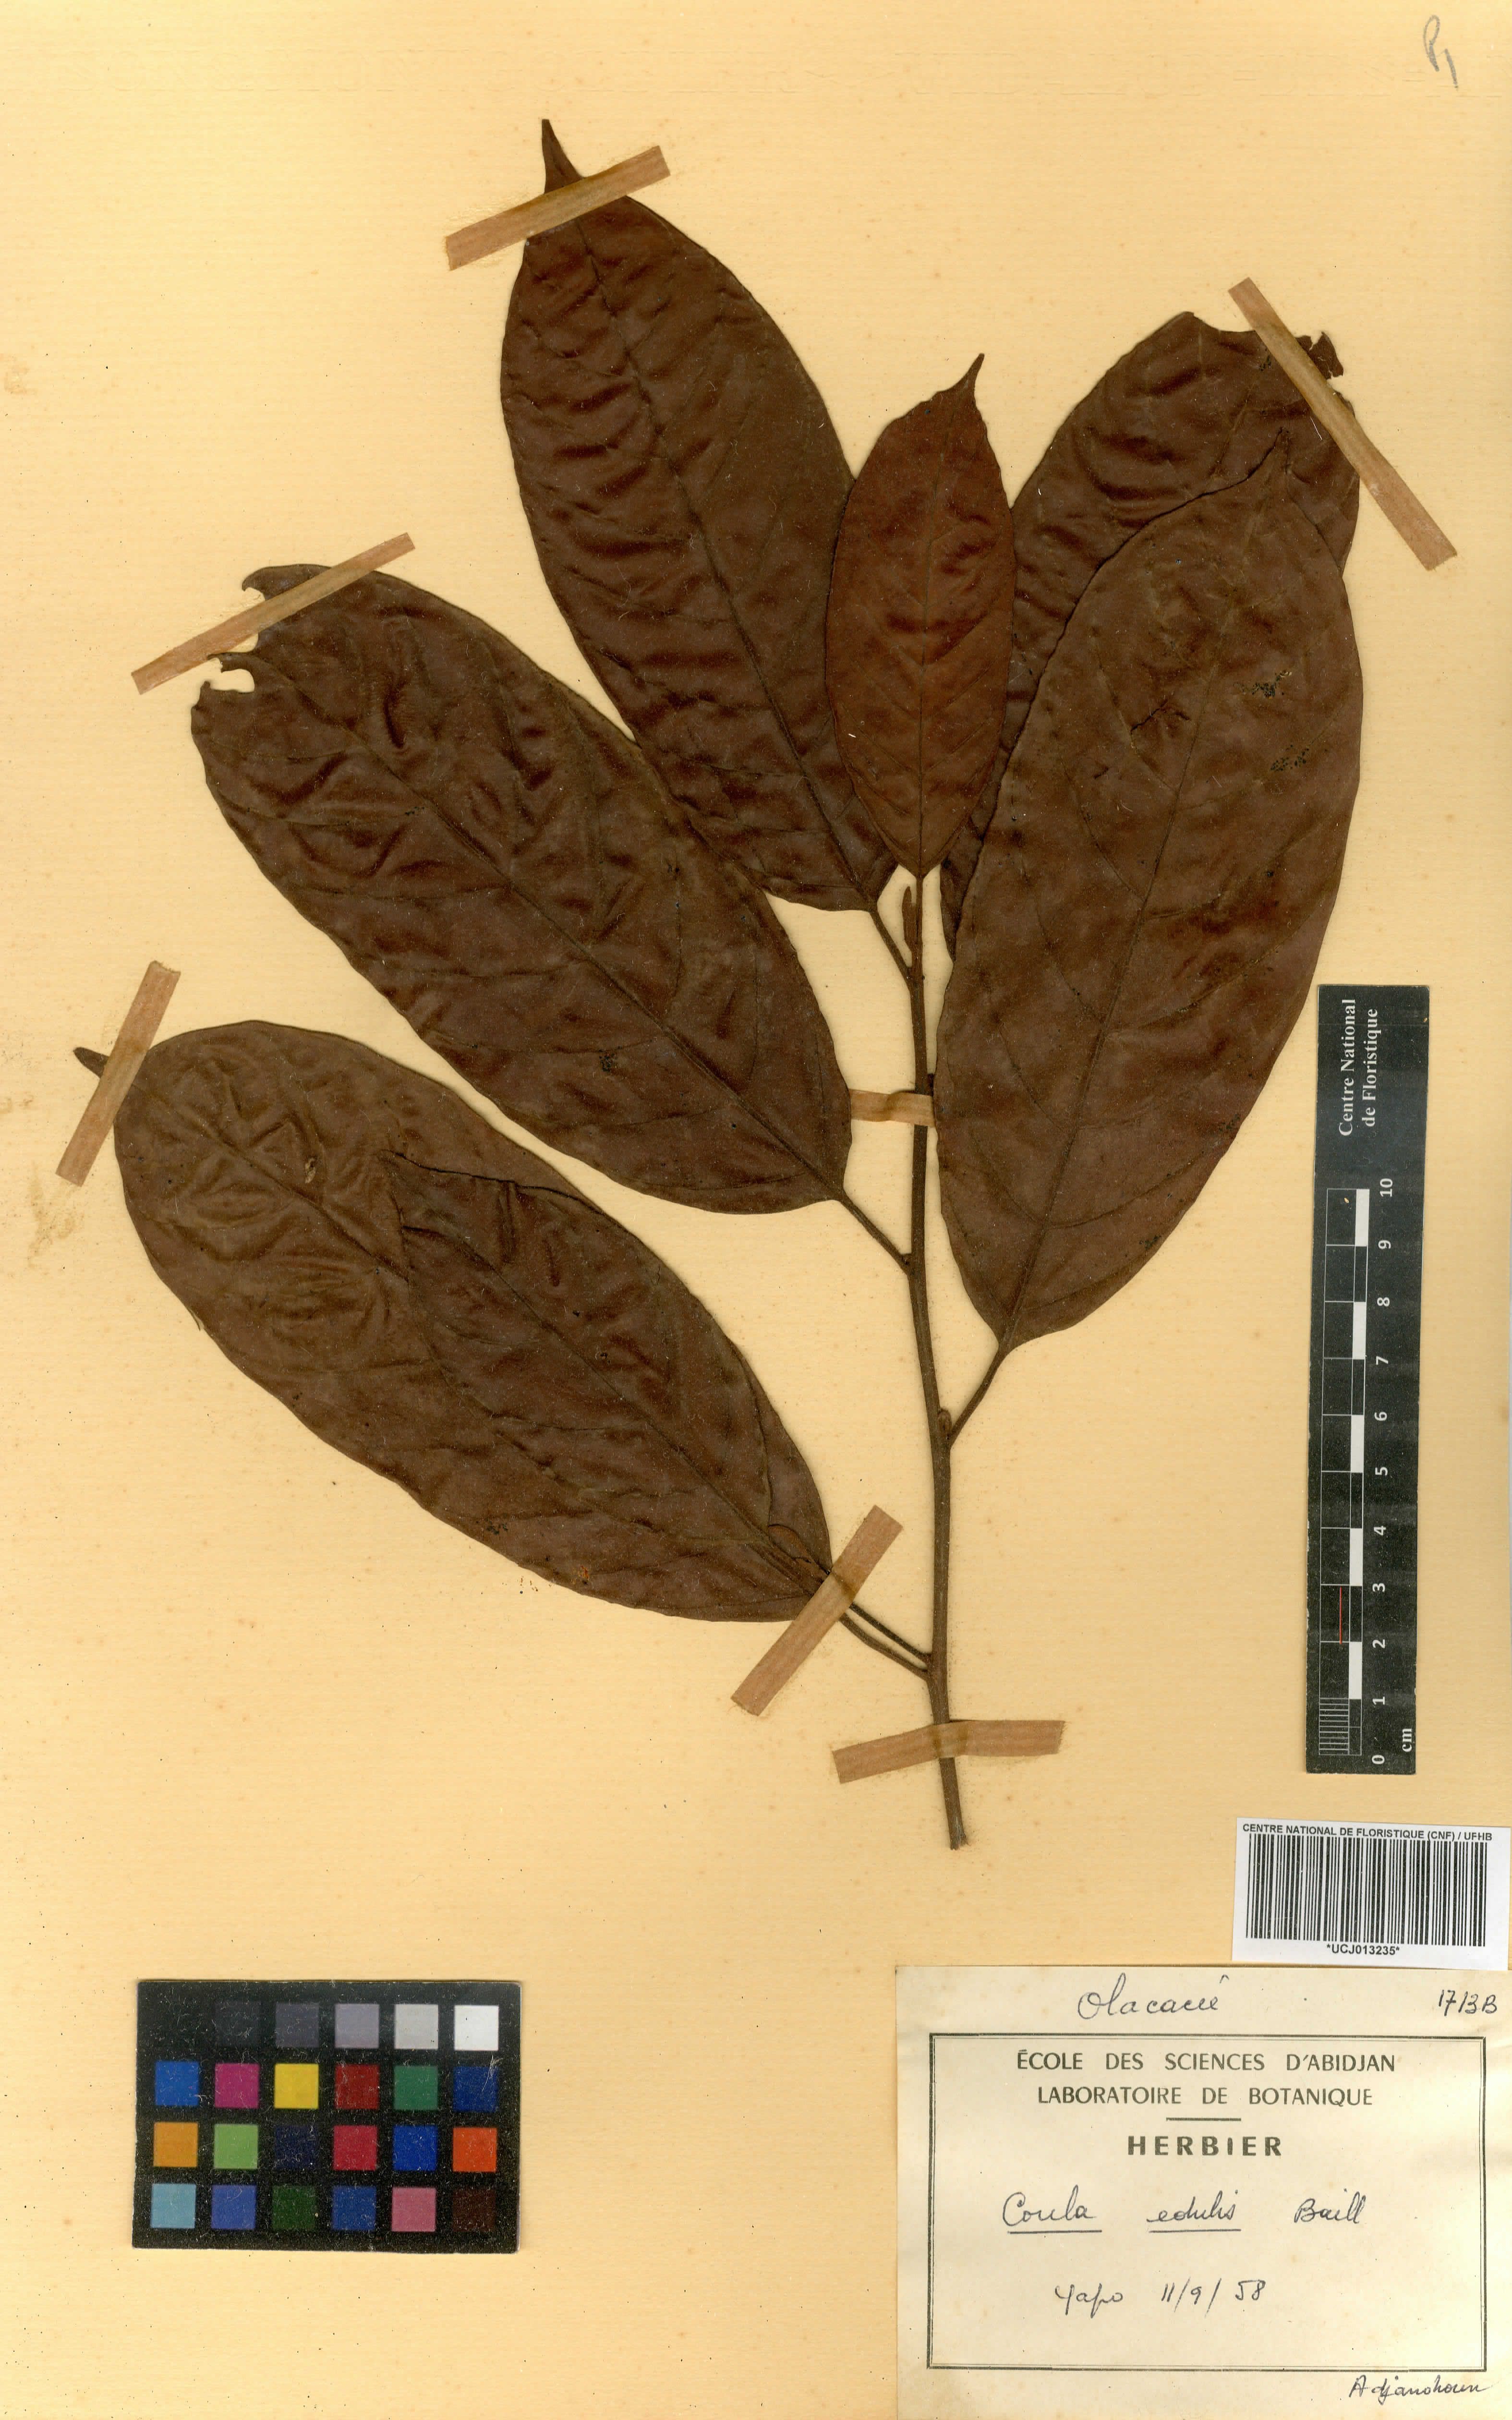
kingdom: Plantae
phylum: Tracheophyta
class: Magnoliopsida
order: Santalales
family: Coulaceae
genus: Coula
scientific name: Coula edulis
